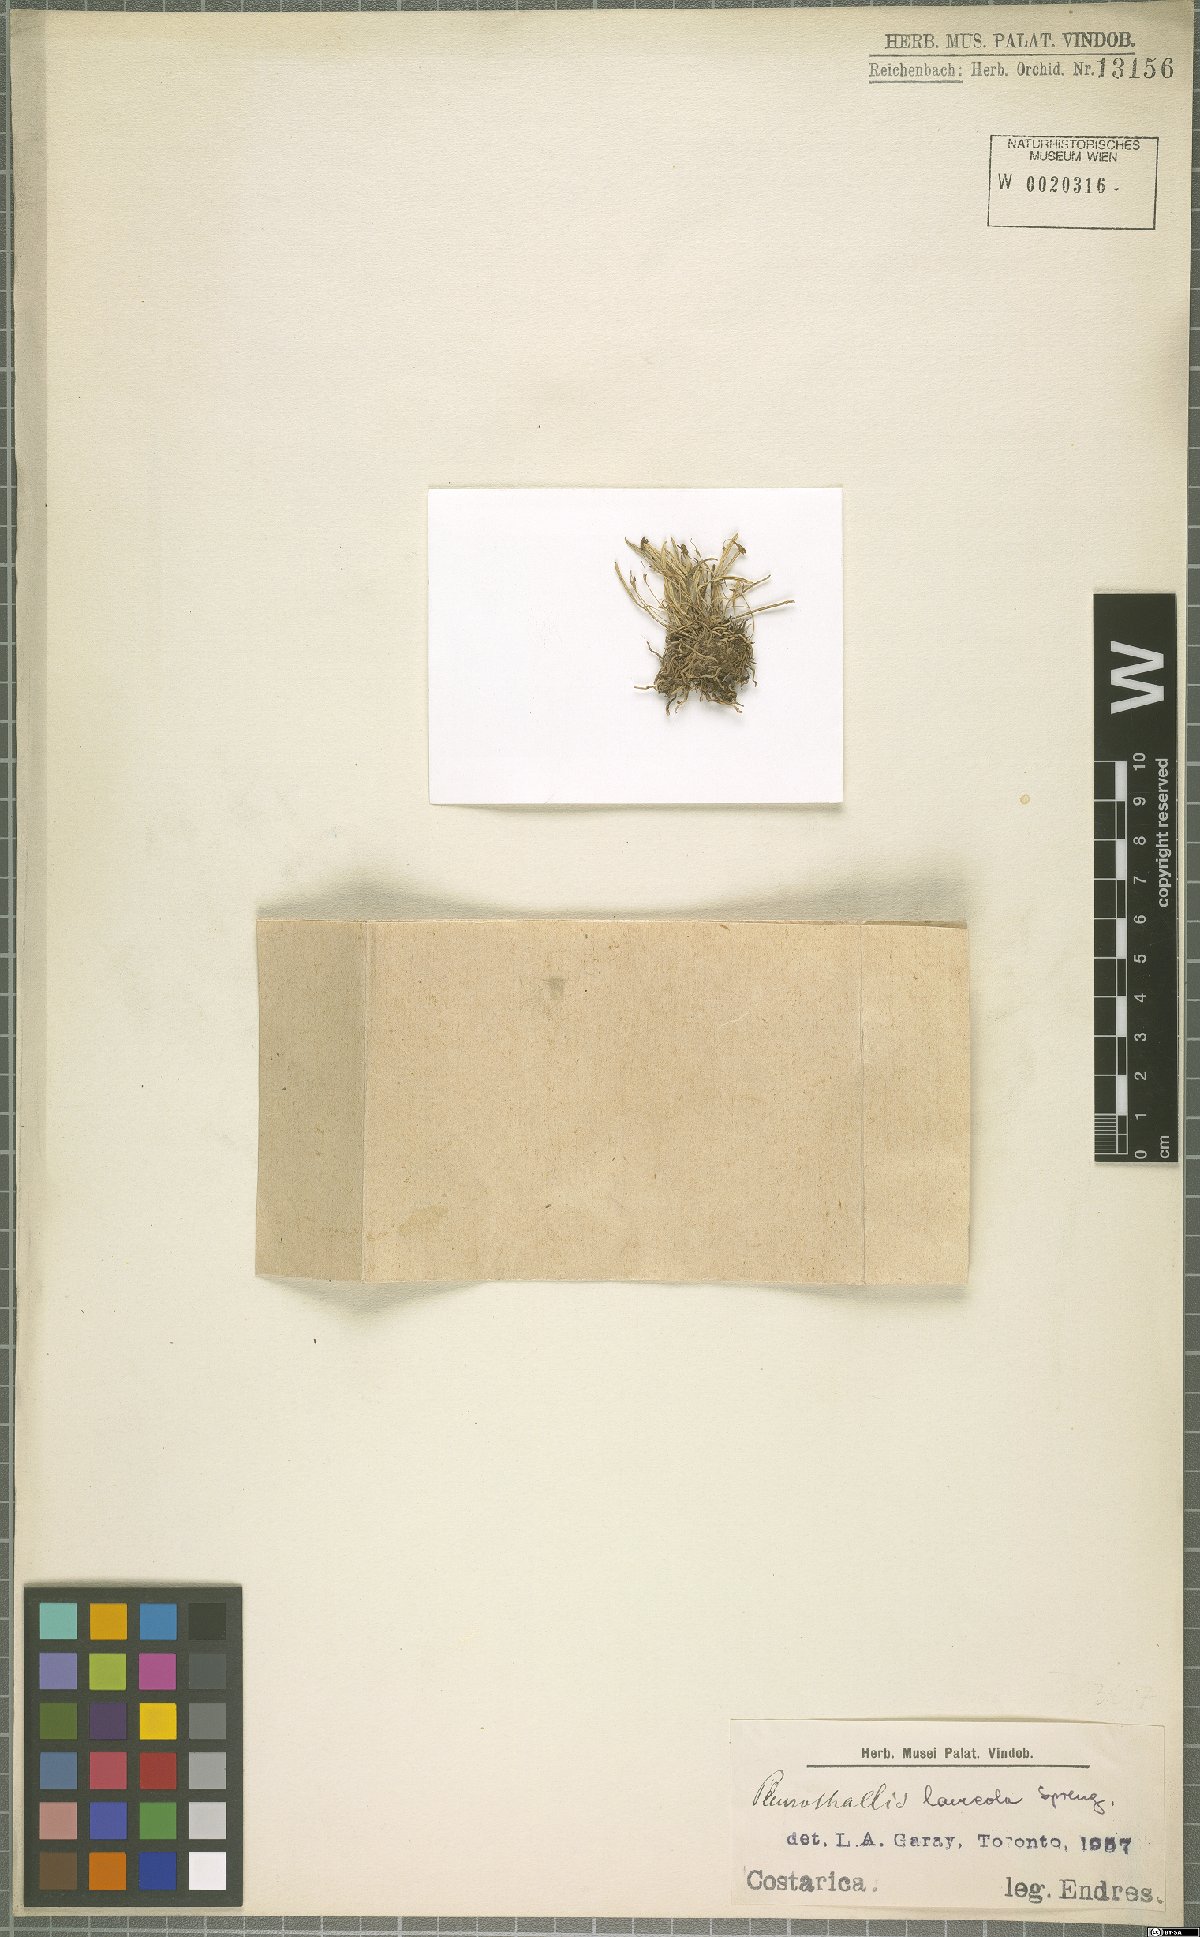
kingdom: Plantae
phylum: Tracheophyta
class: Liliopsida
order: Asparagales
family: Orchidaceae
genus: Specklinia
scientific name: Specklinia lanceola
